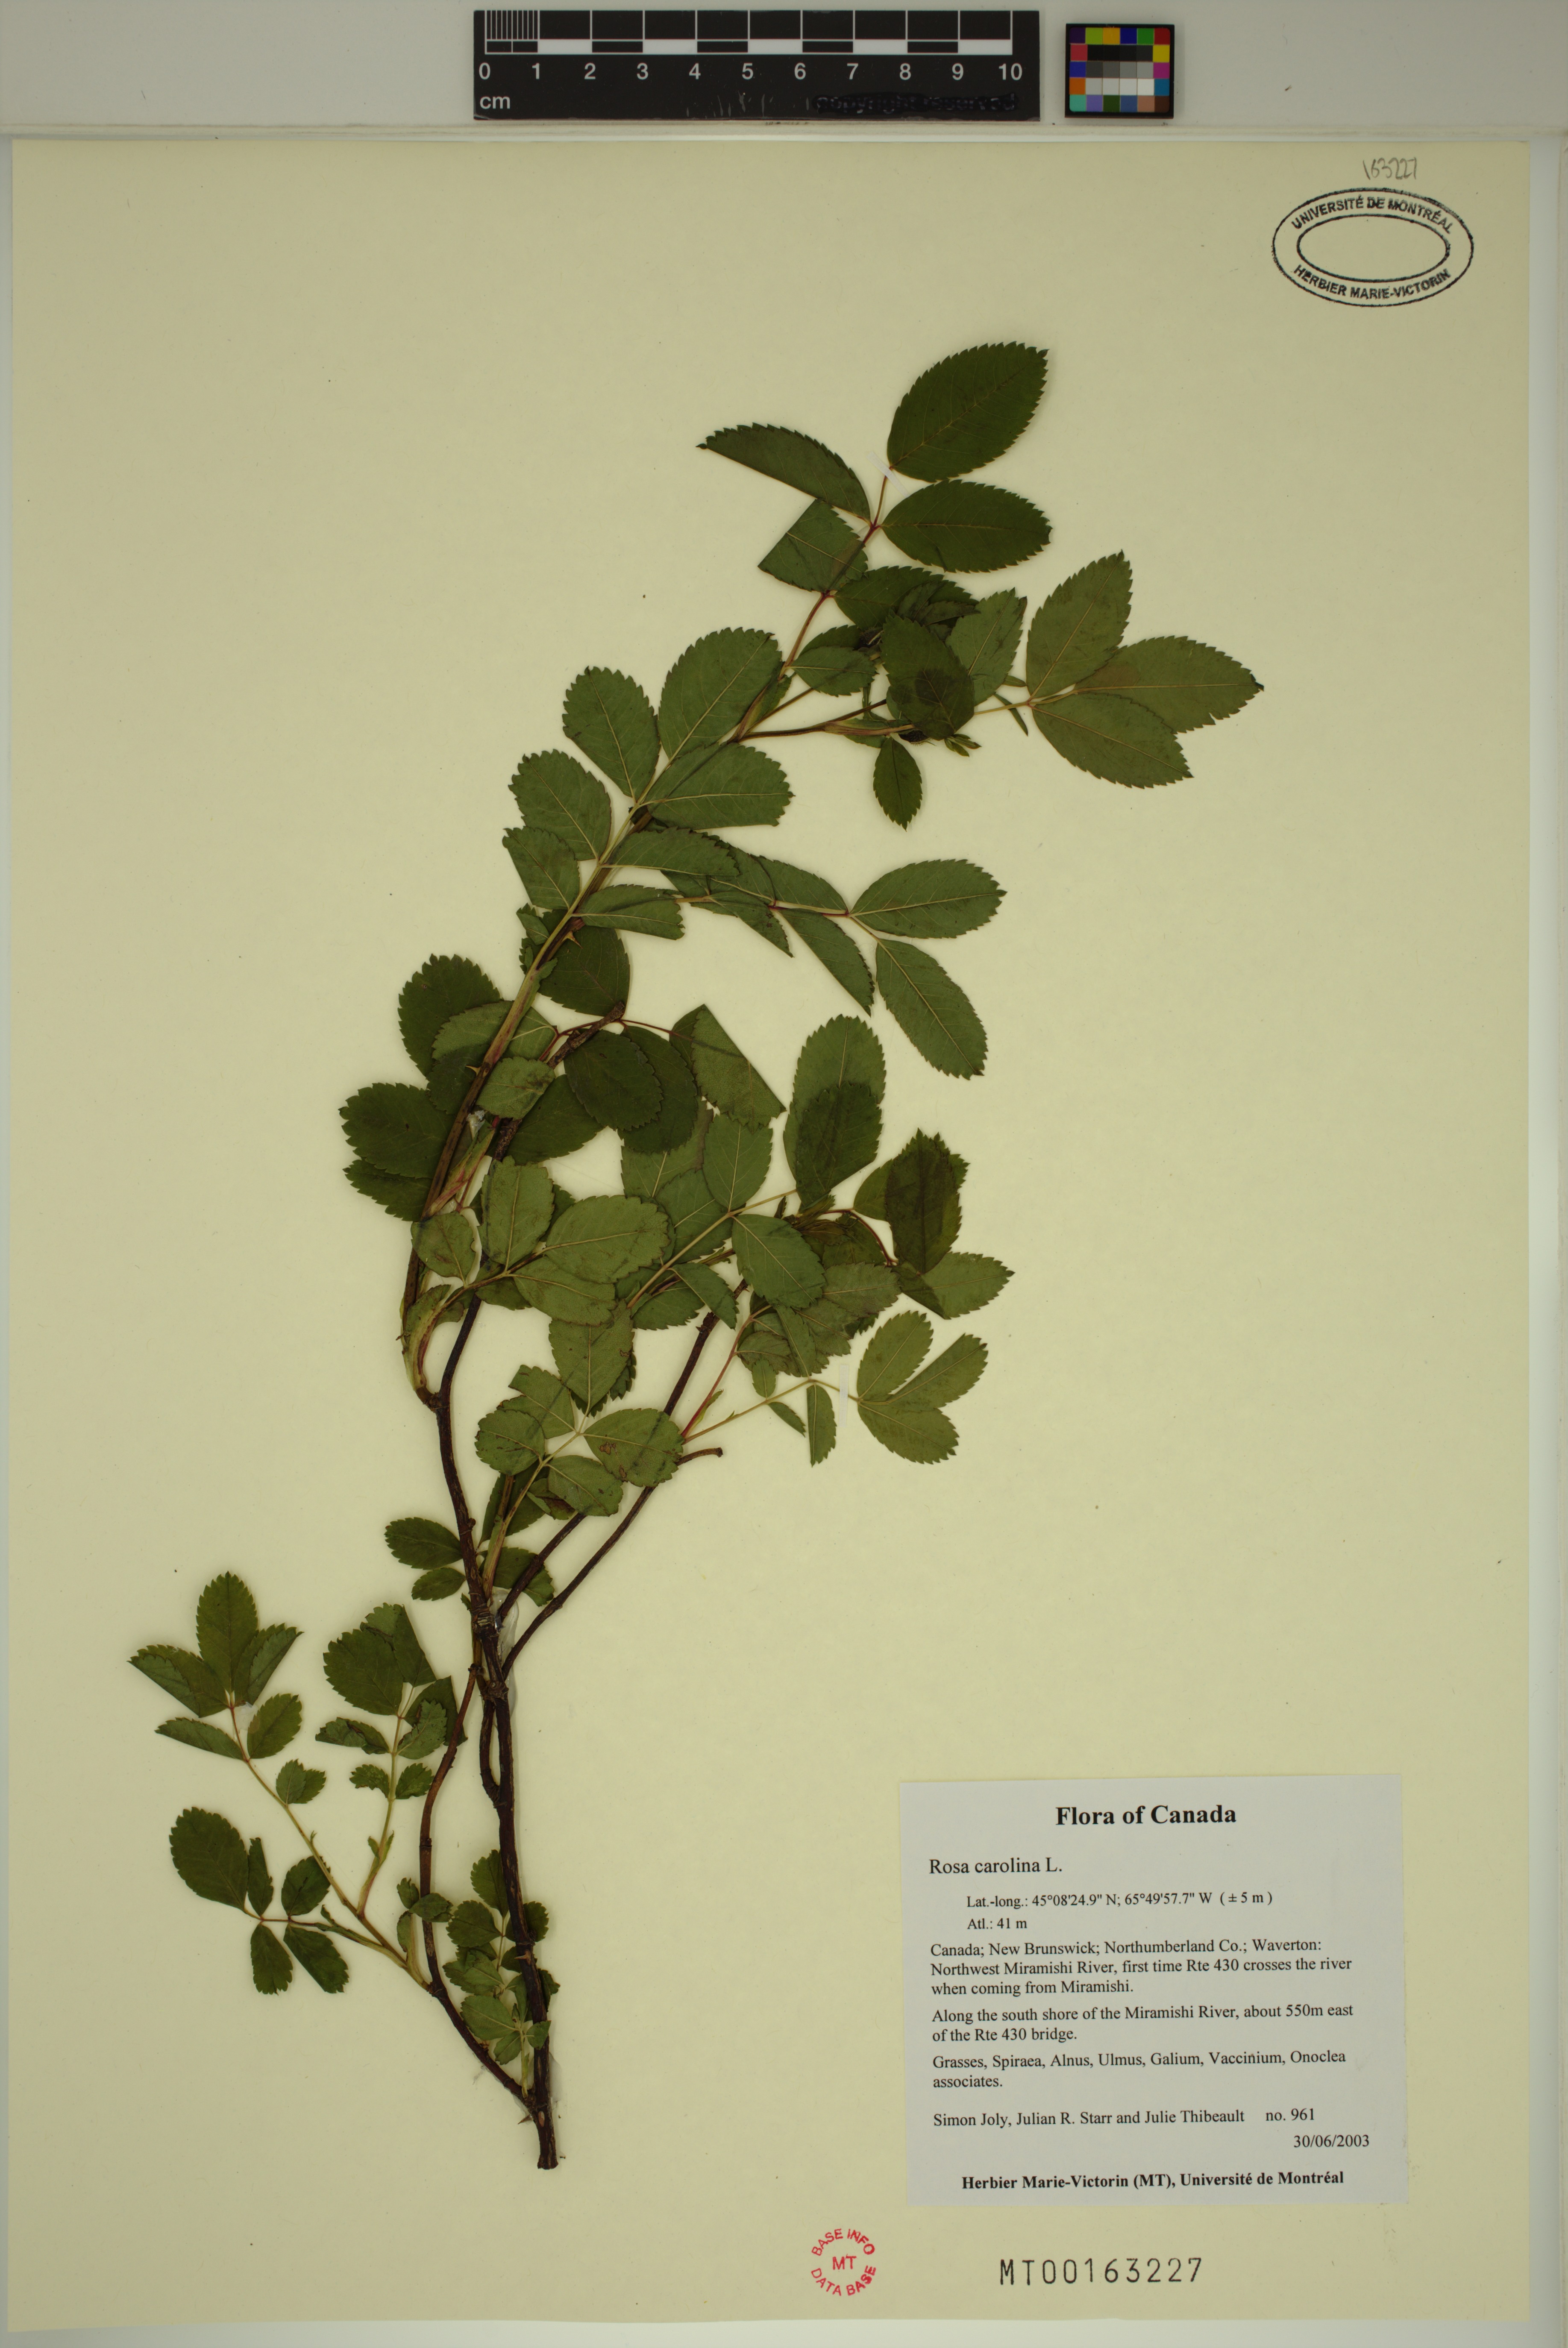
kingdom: Plantae
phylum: Tracheophyta
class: Magnoliopsida
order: Rosales
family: Rosaceae
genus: Rosa
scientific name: Rosa carolina
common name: Pasture rose
